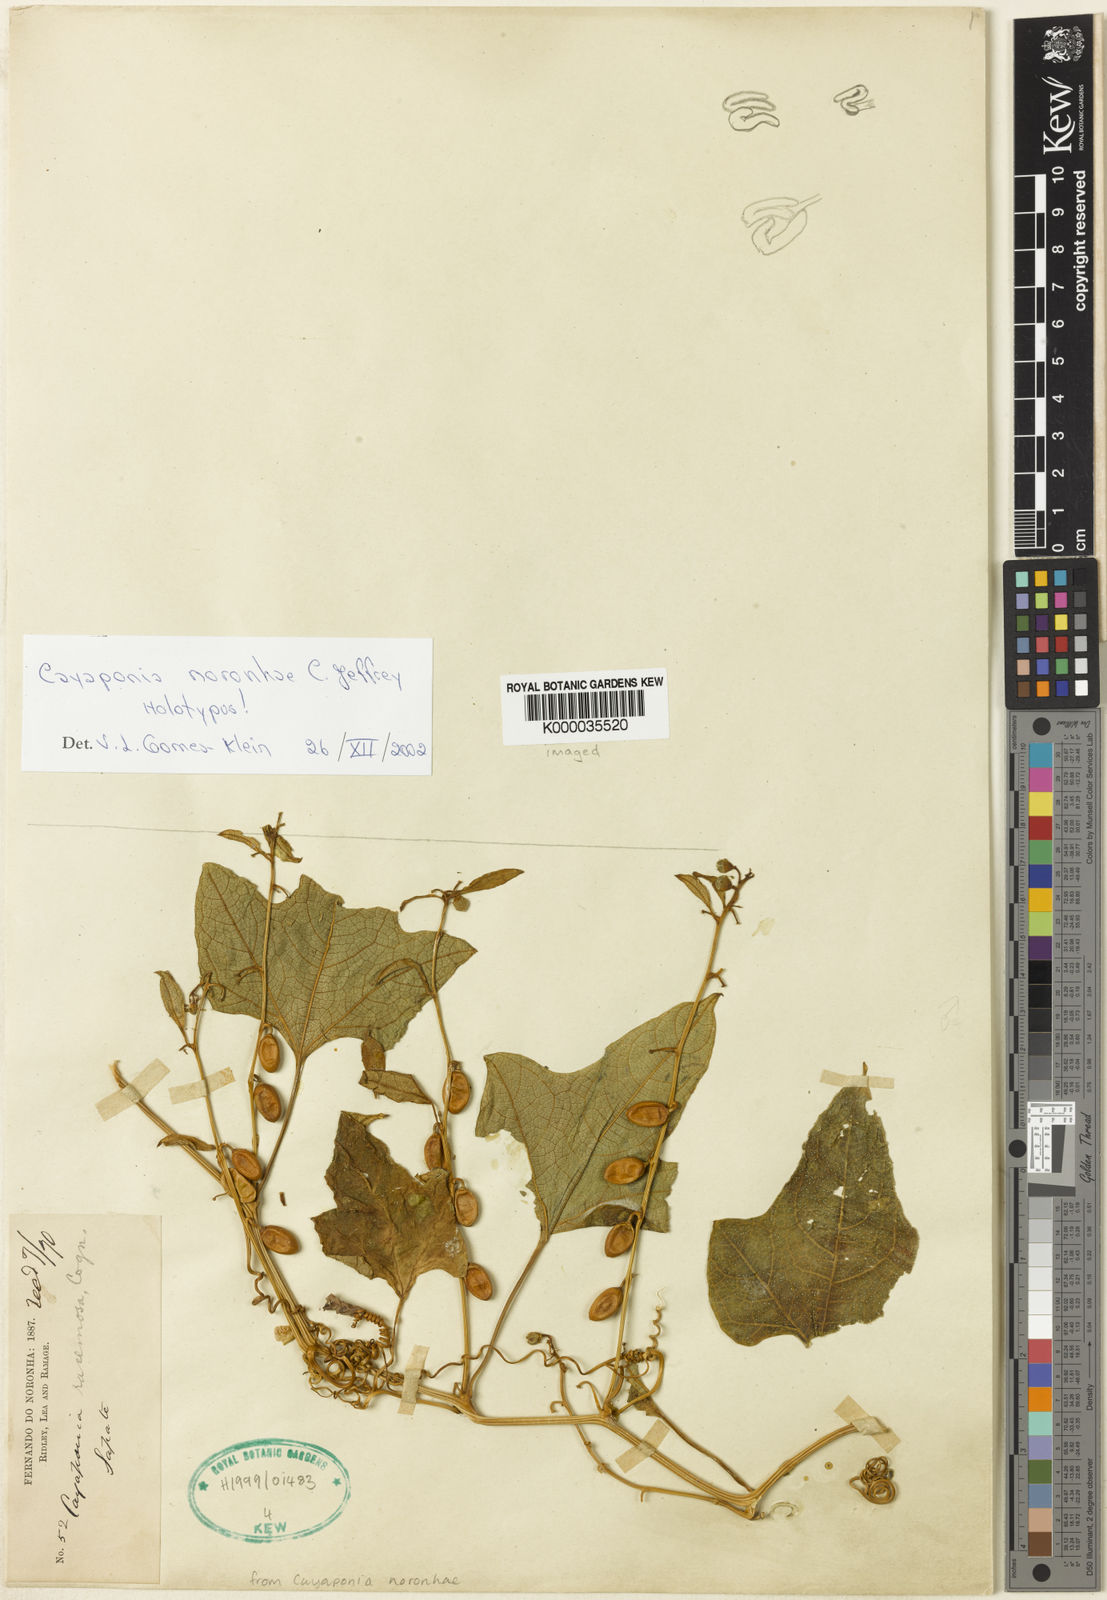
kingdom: Plantae
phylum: Tracheophyta
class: Magnoliopsida
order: Cucurbitales
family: Cucurbitaceae
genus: Cayaponia
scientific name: Cayaponia noronhae
